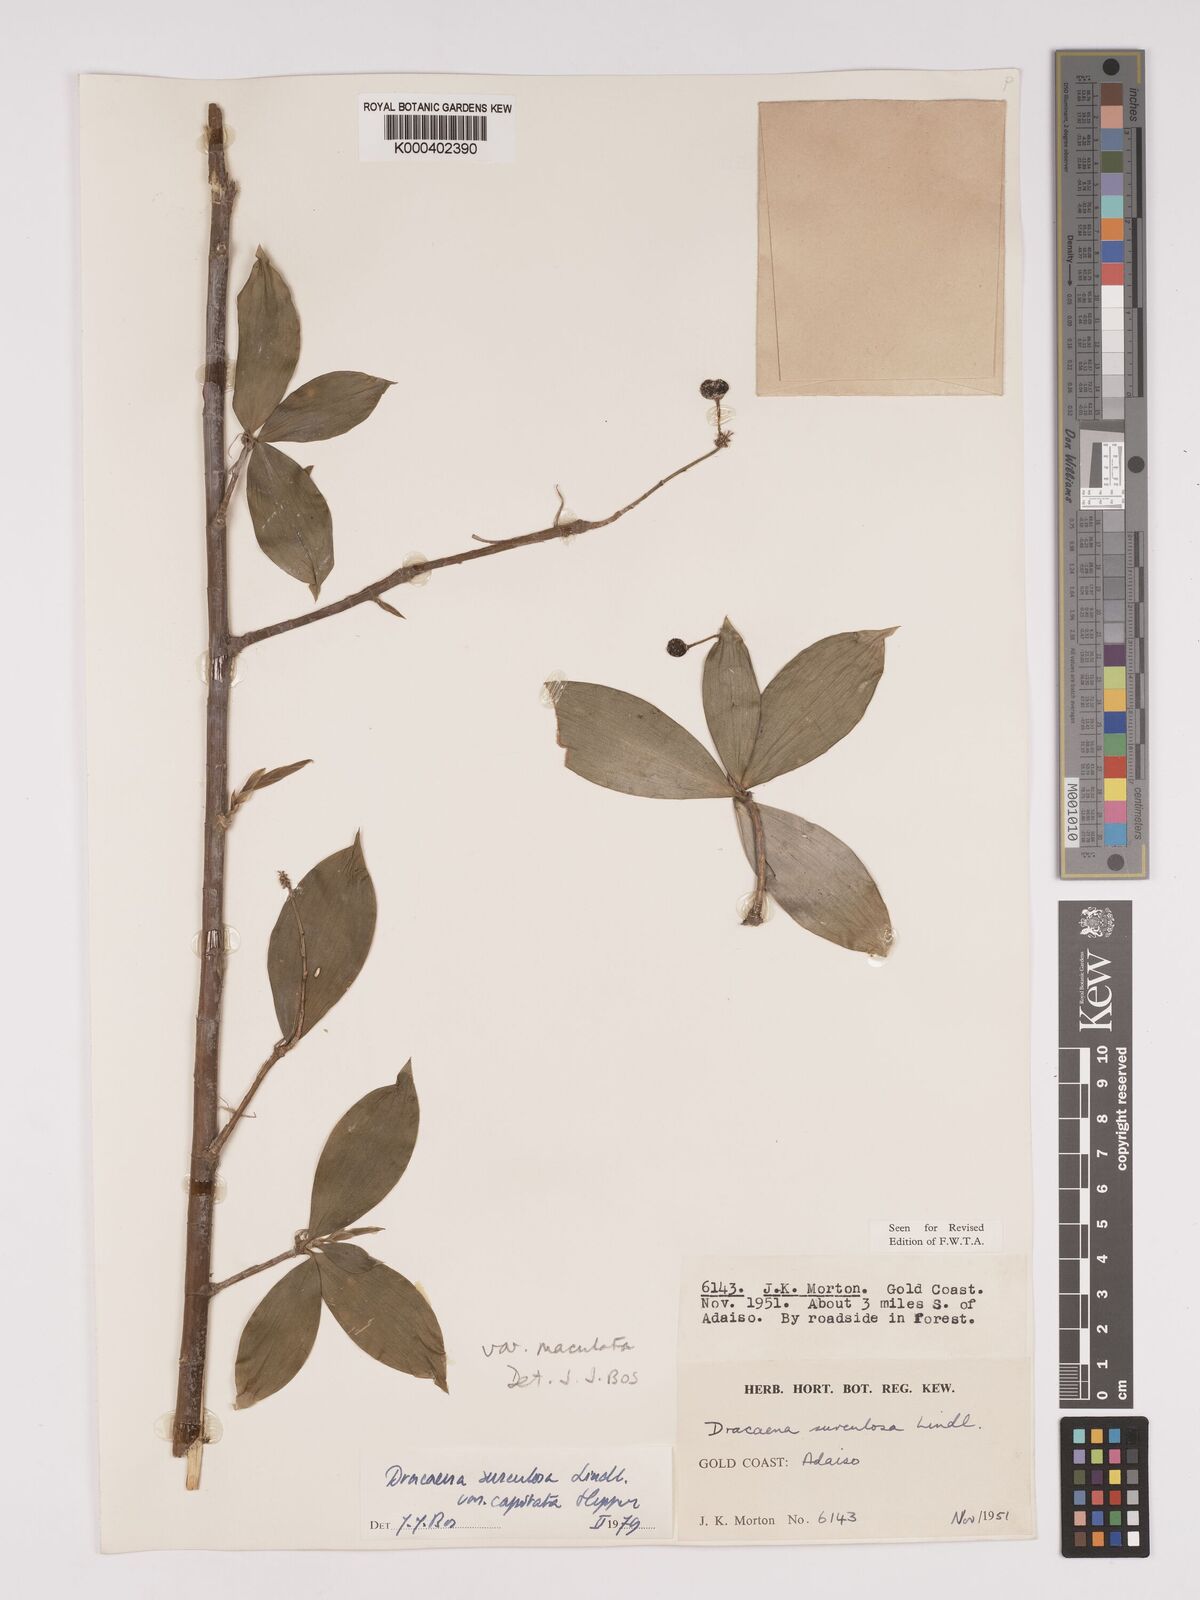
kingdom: Plantae
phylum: Tracheophyta
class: Liliopsida
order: Asparagales
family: Asparagaceae
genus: Dracaena
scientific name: Dracaena surculosa
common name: Spotted dracaena
